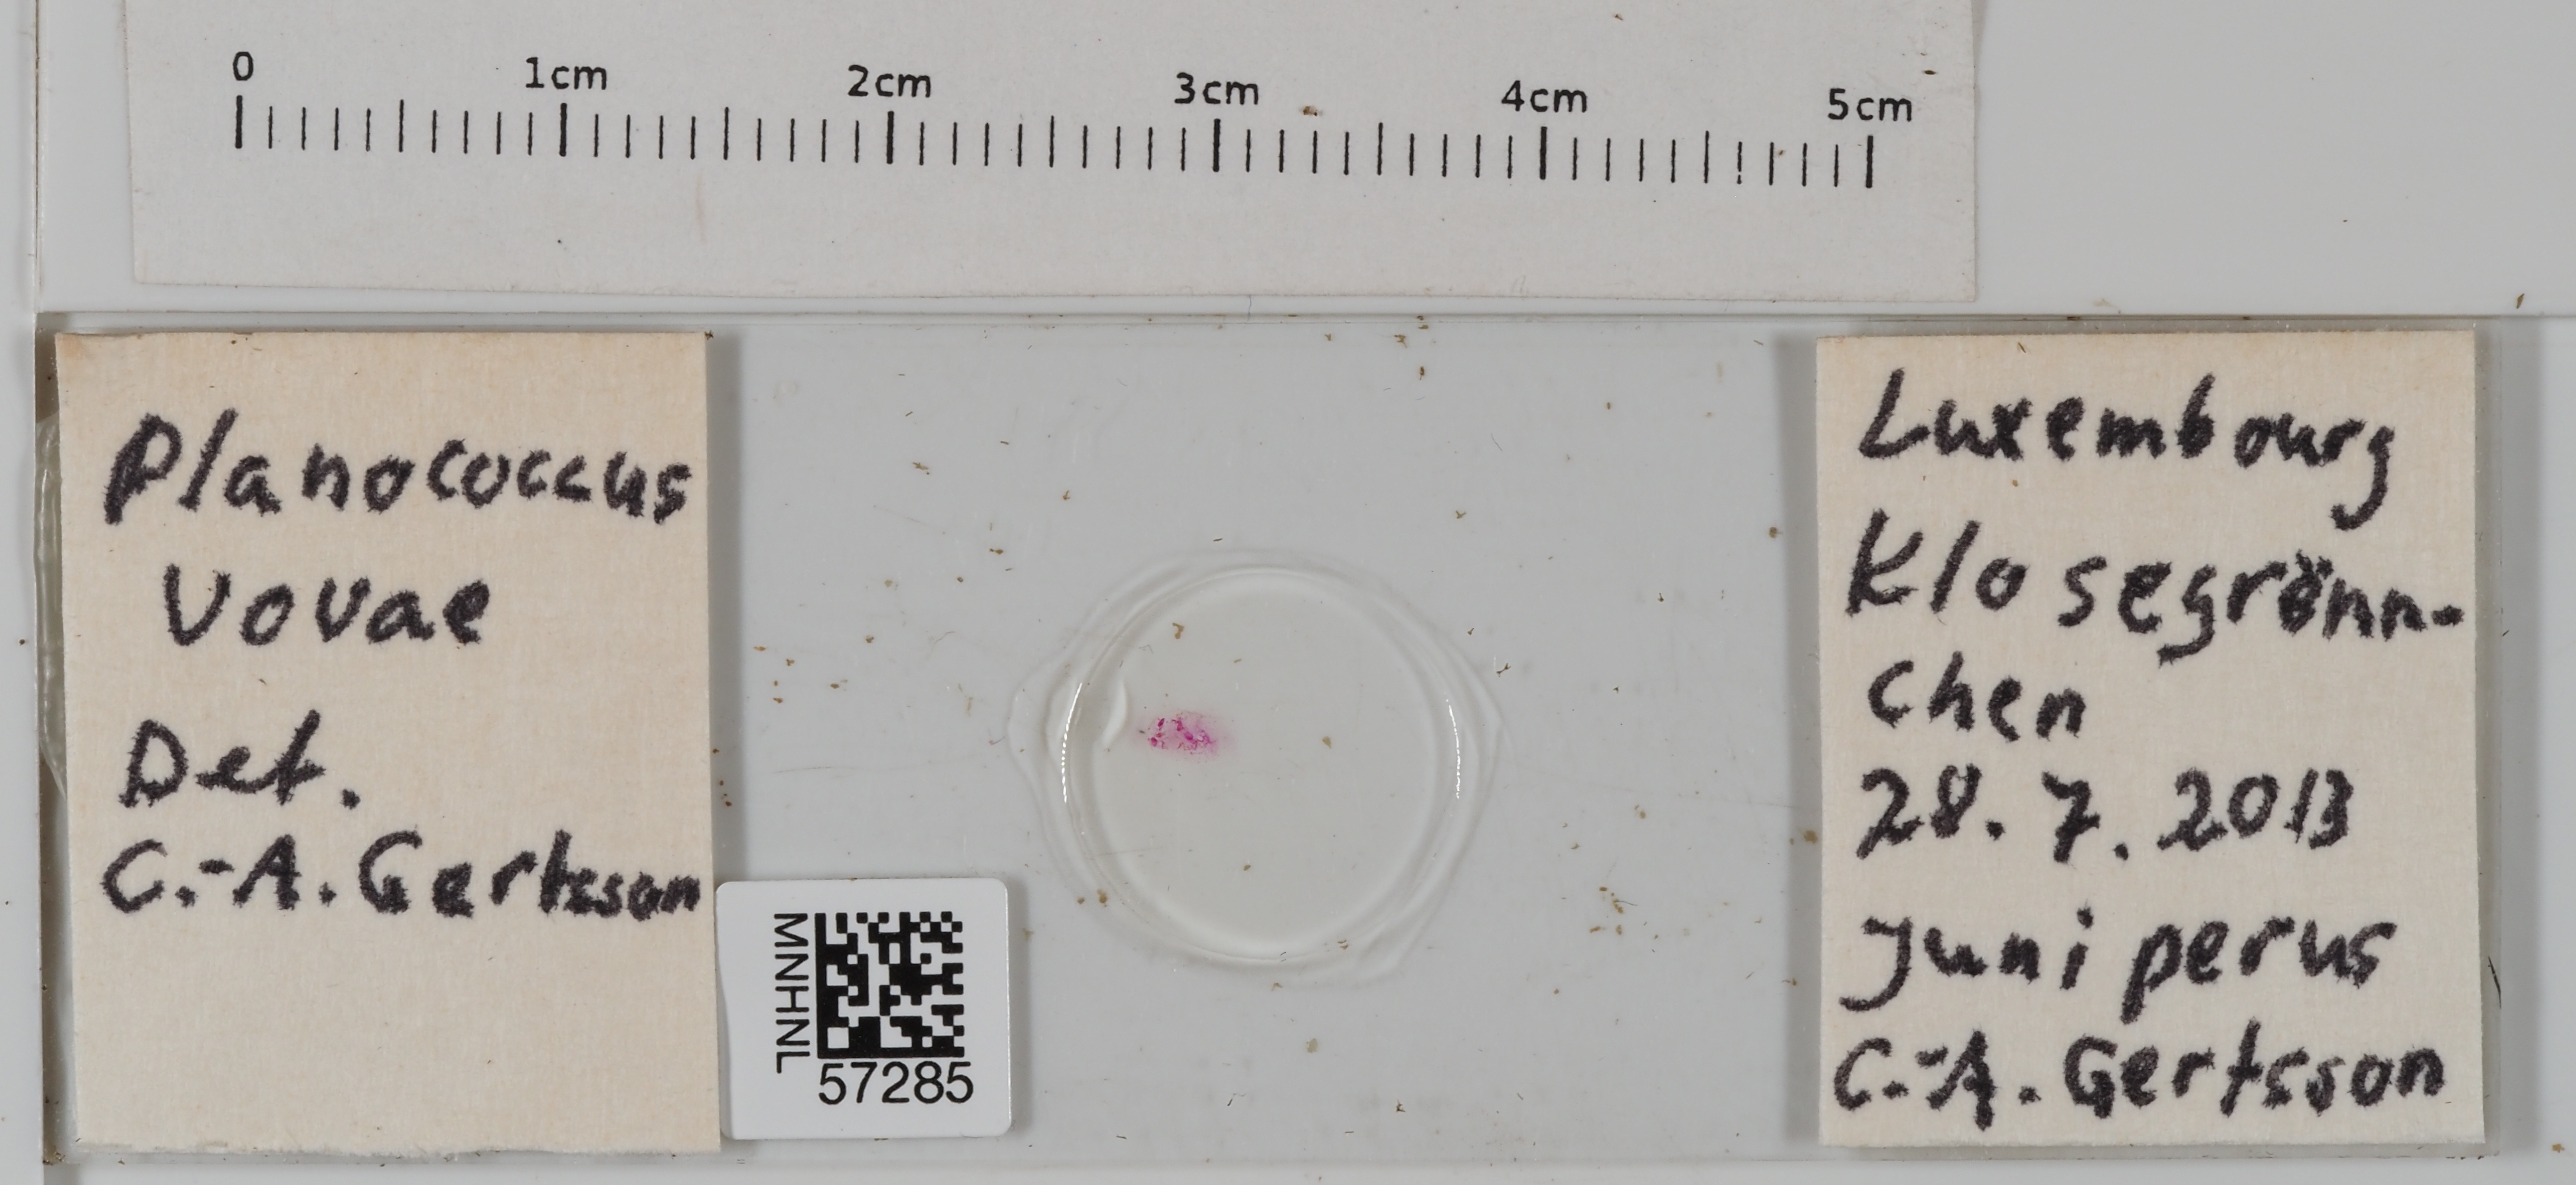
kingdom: Animalia
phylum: Arthropoda
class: Insecta
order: Hemiptera
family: Pseudococcidae
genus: Planococcus
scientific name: Planococcus vovae
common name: Nassonov's mealybug
